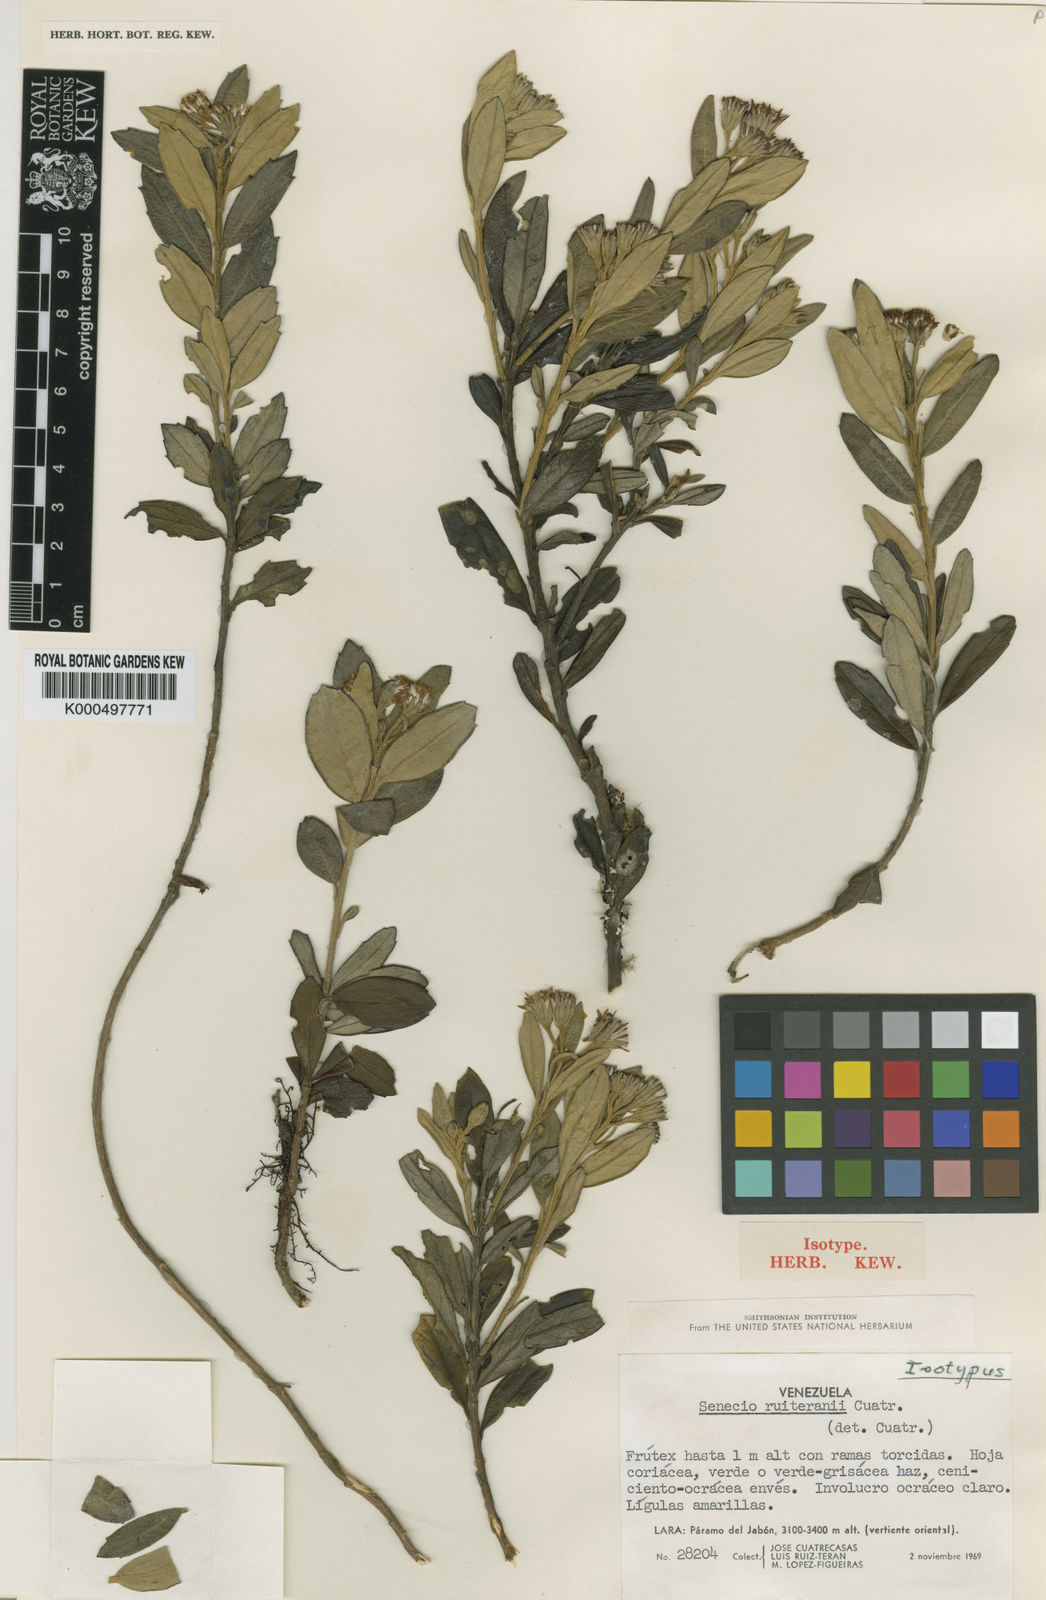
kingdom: Plantae
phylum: Tracheophyta
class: Magnoliopsida
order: Asterales
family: Asteraceae
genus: Monticalia
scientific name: Monticalia ruiteranii
